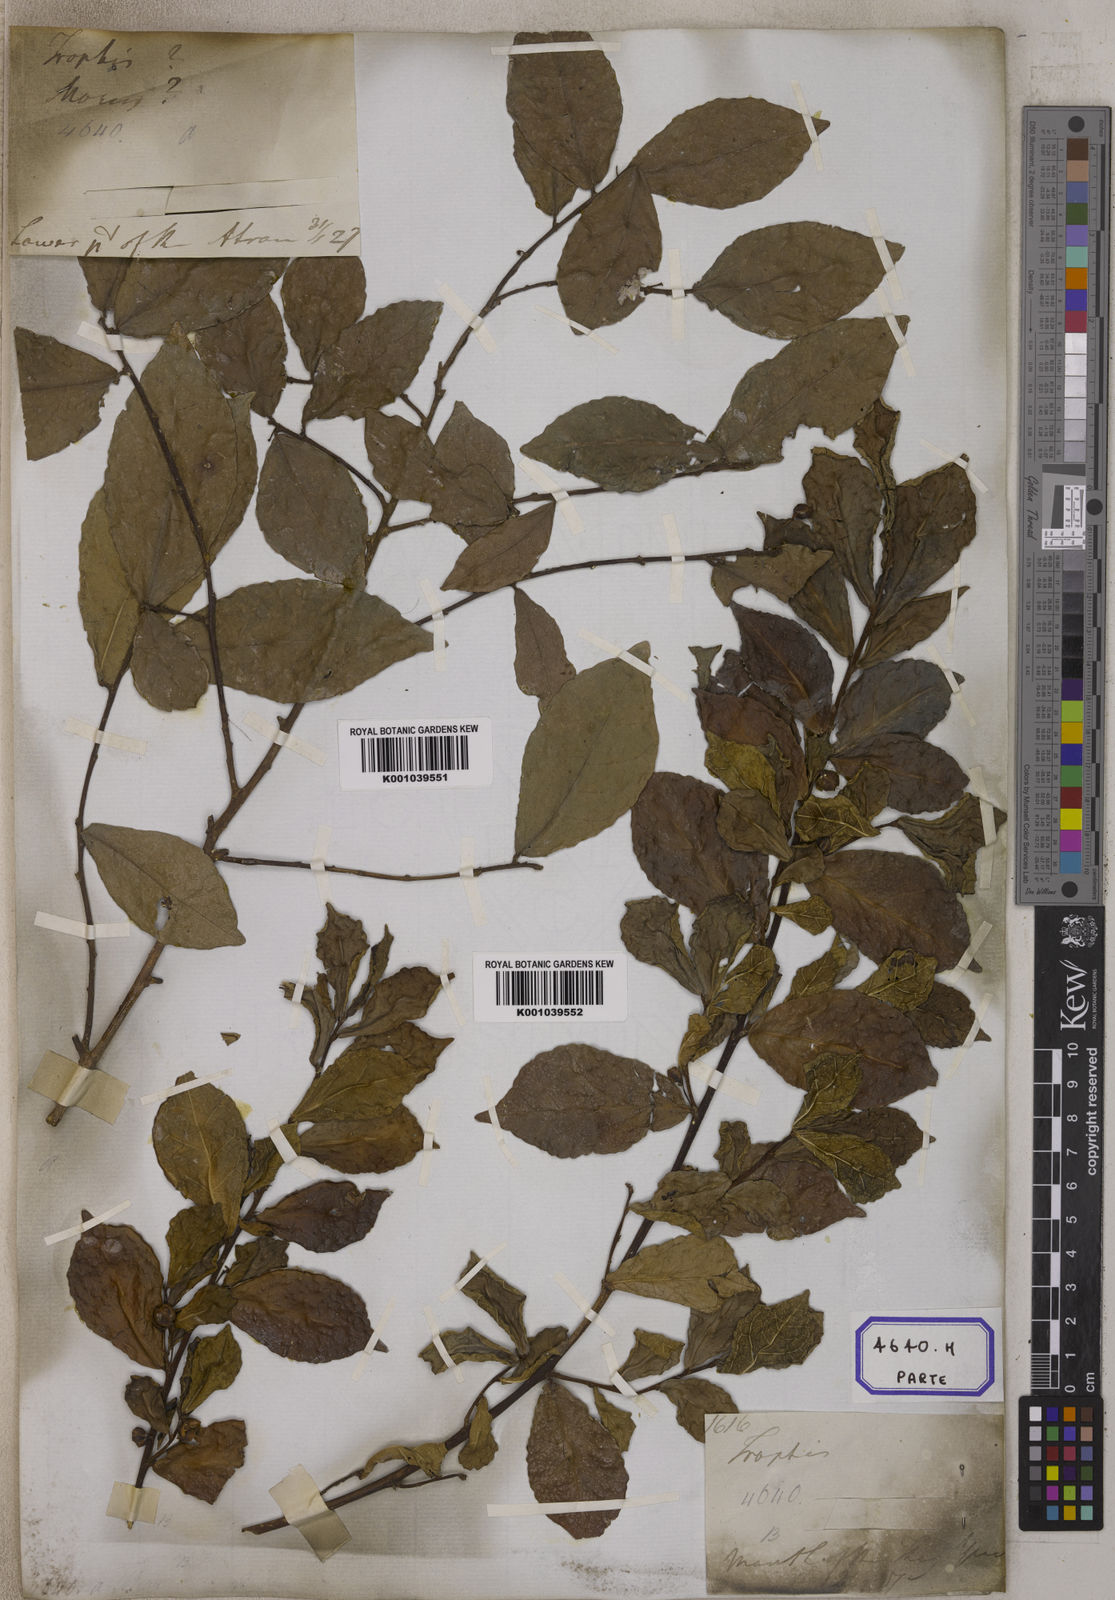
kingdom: Plantae
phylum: Tracheophyta
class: Magnoliopsida
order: Rosales
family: Moraceae
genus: Streblus
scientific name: Streblus asper
